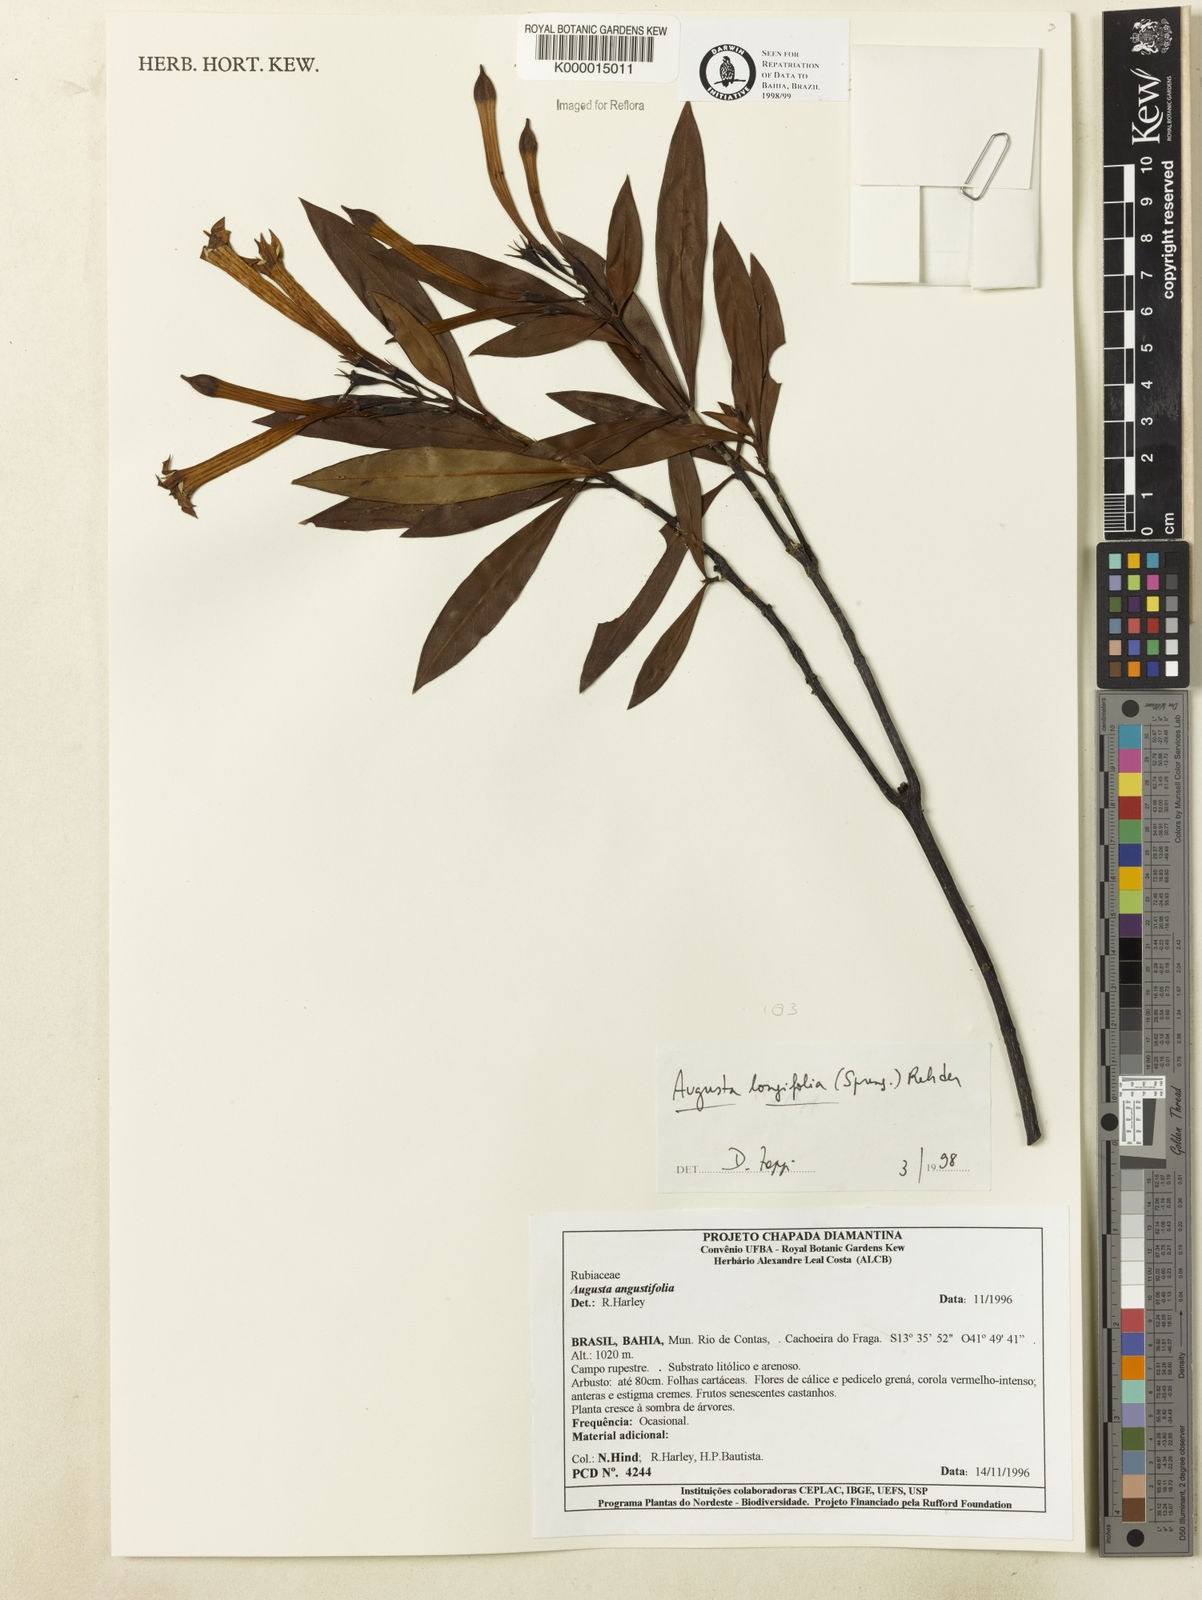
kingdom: Plantae
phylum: Tracheophyta
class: Magnoliopsida
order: Gentianales
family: Rubiaceae
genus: Augusta
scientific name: Augusta longifolia
